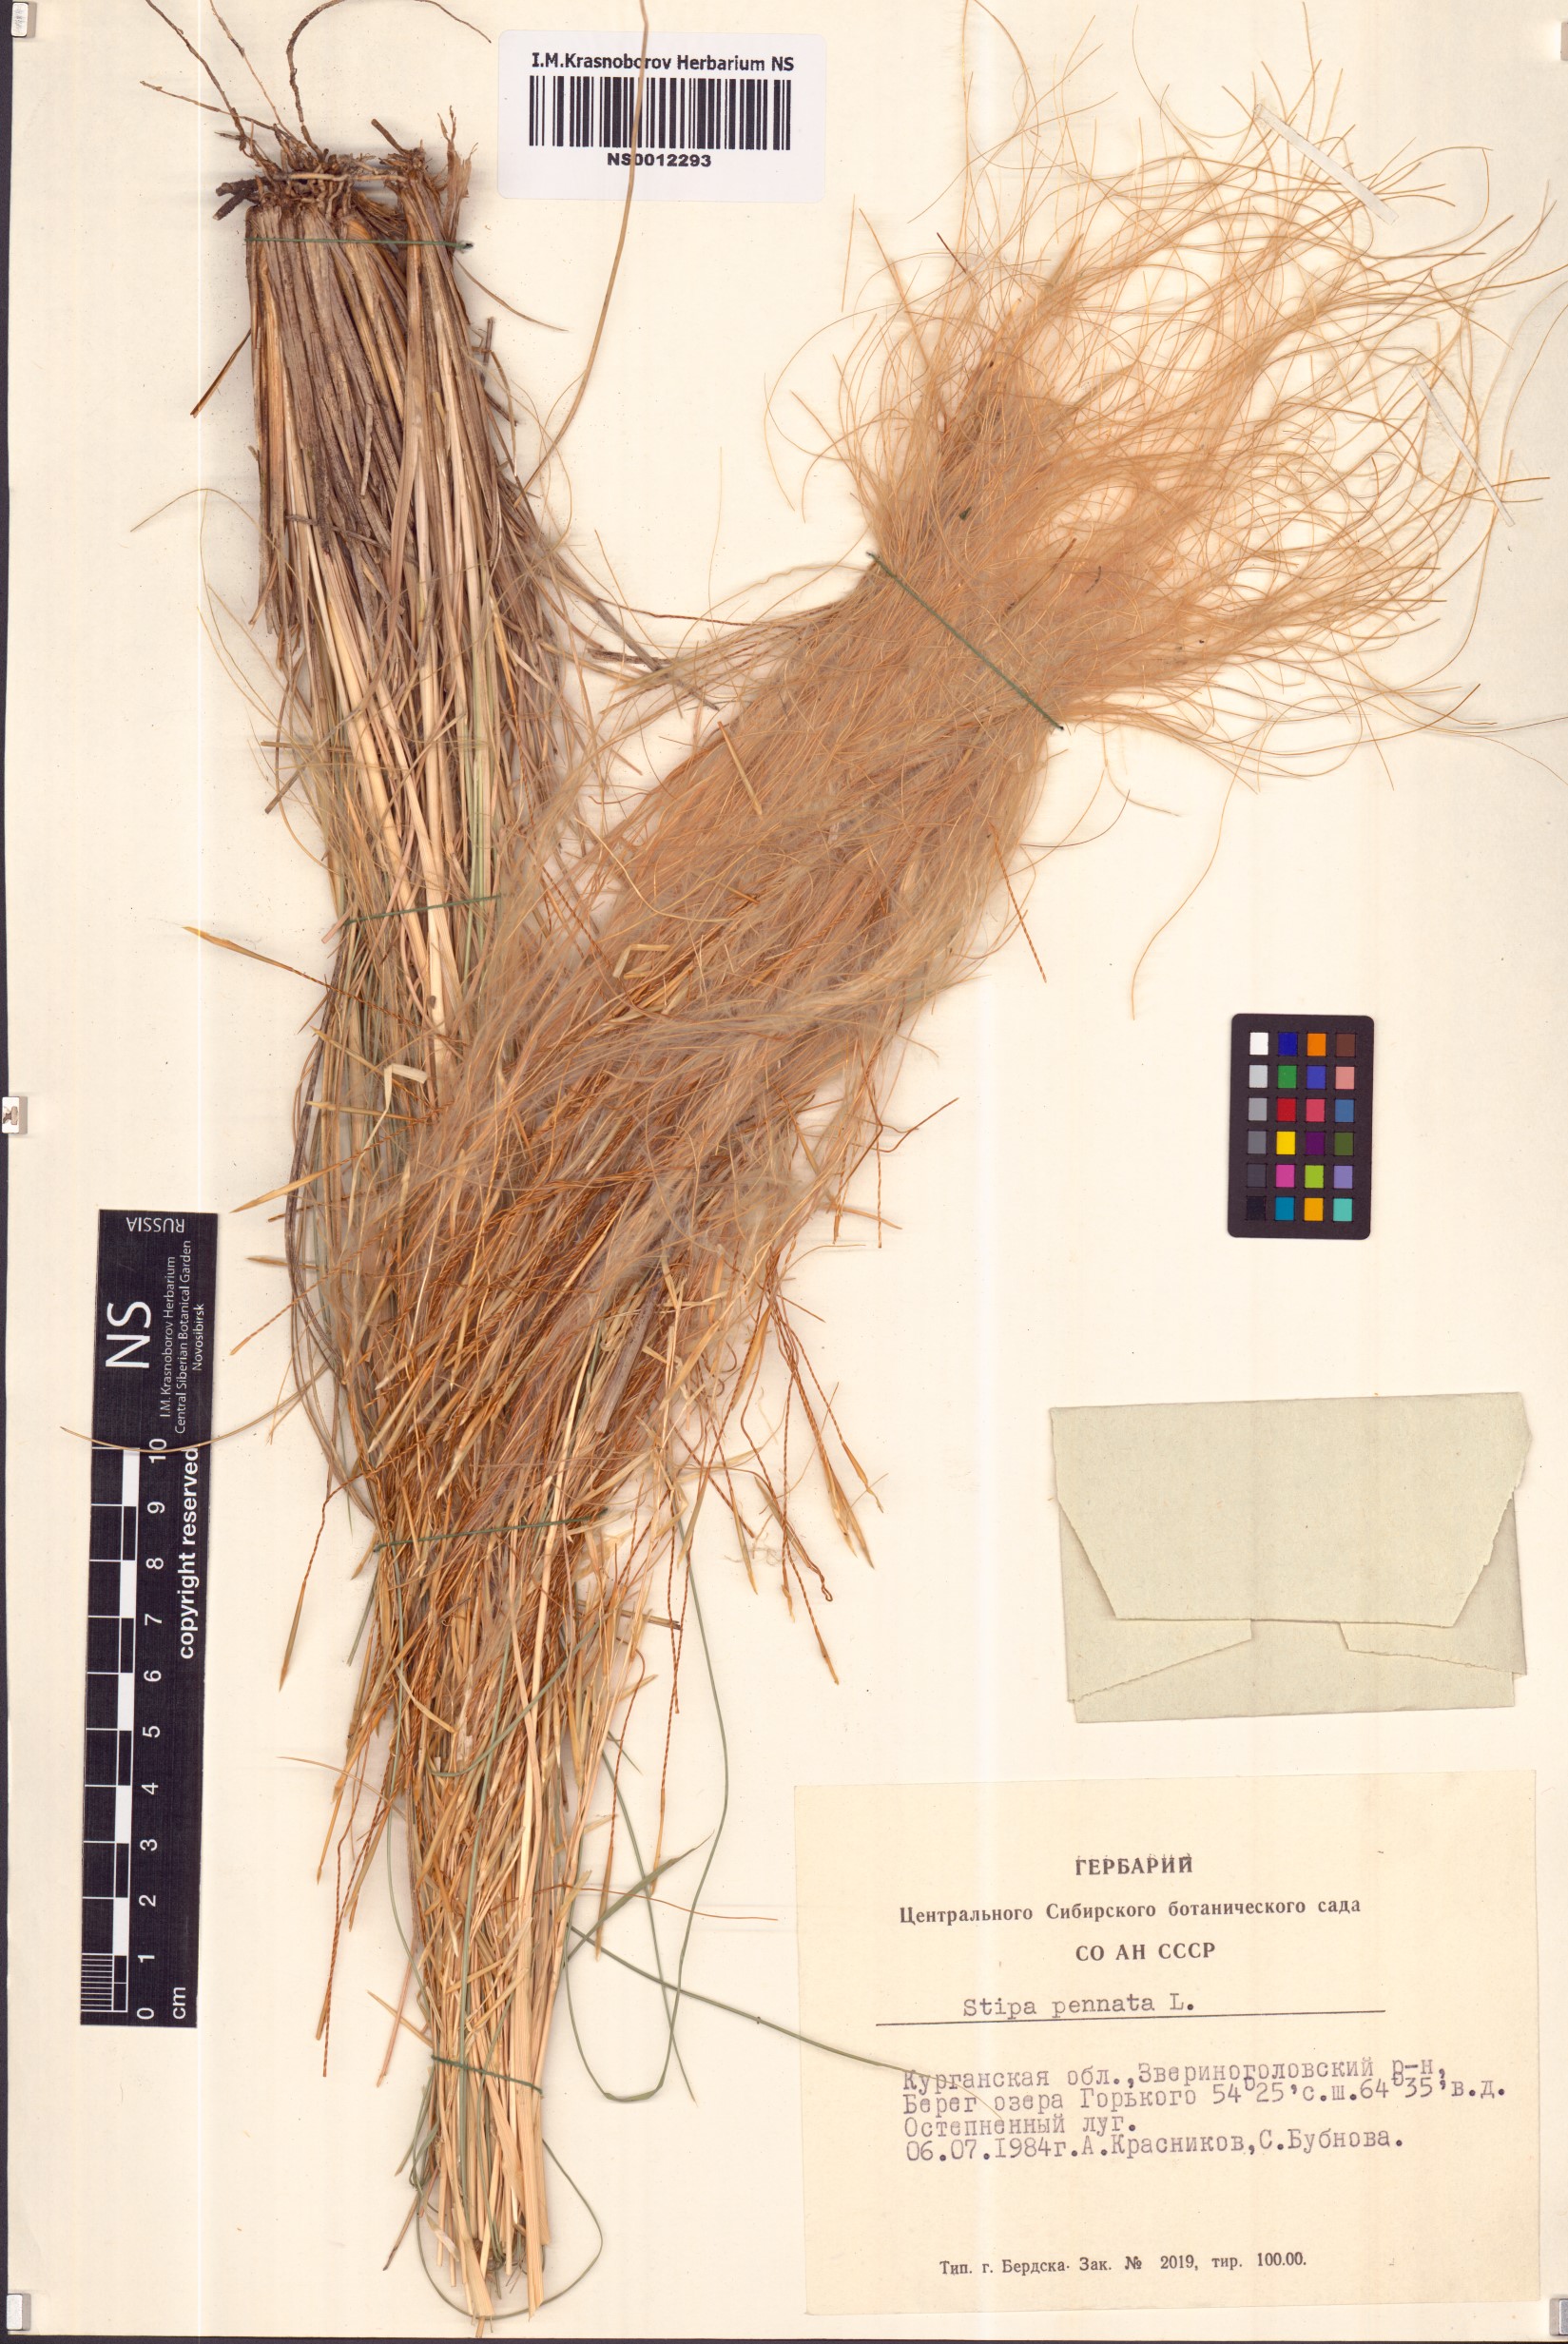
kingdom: Plantae
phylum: Tracheophyta
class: Liliopsida
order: Poales
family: Poaceae
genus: Stipa
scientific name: Stipa pennata
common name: European feather grass
